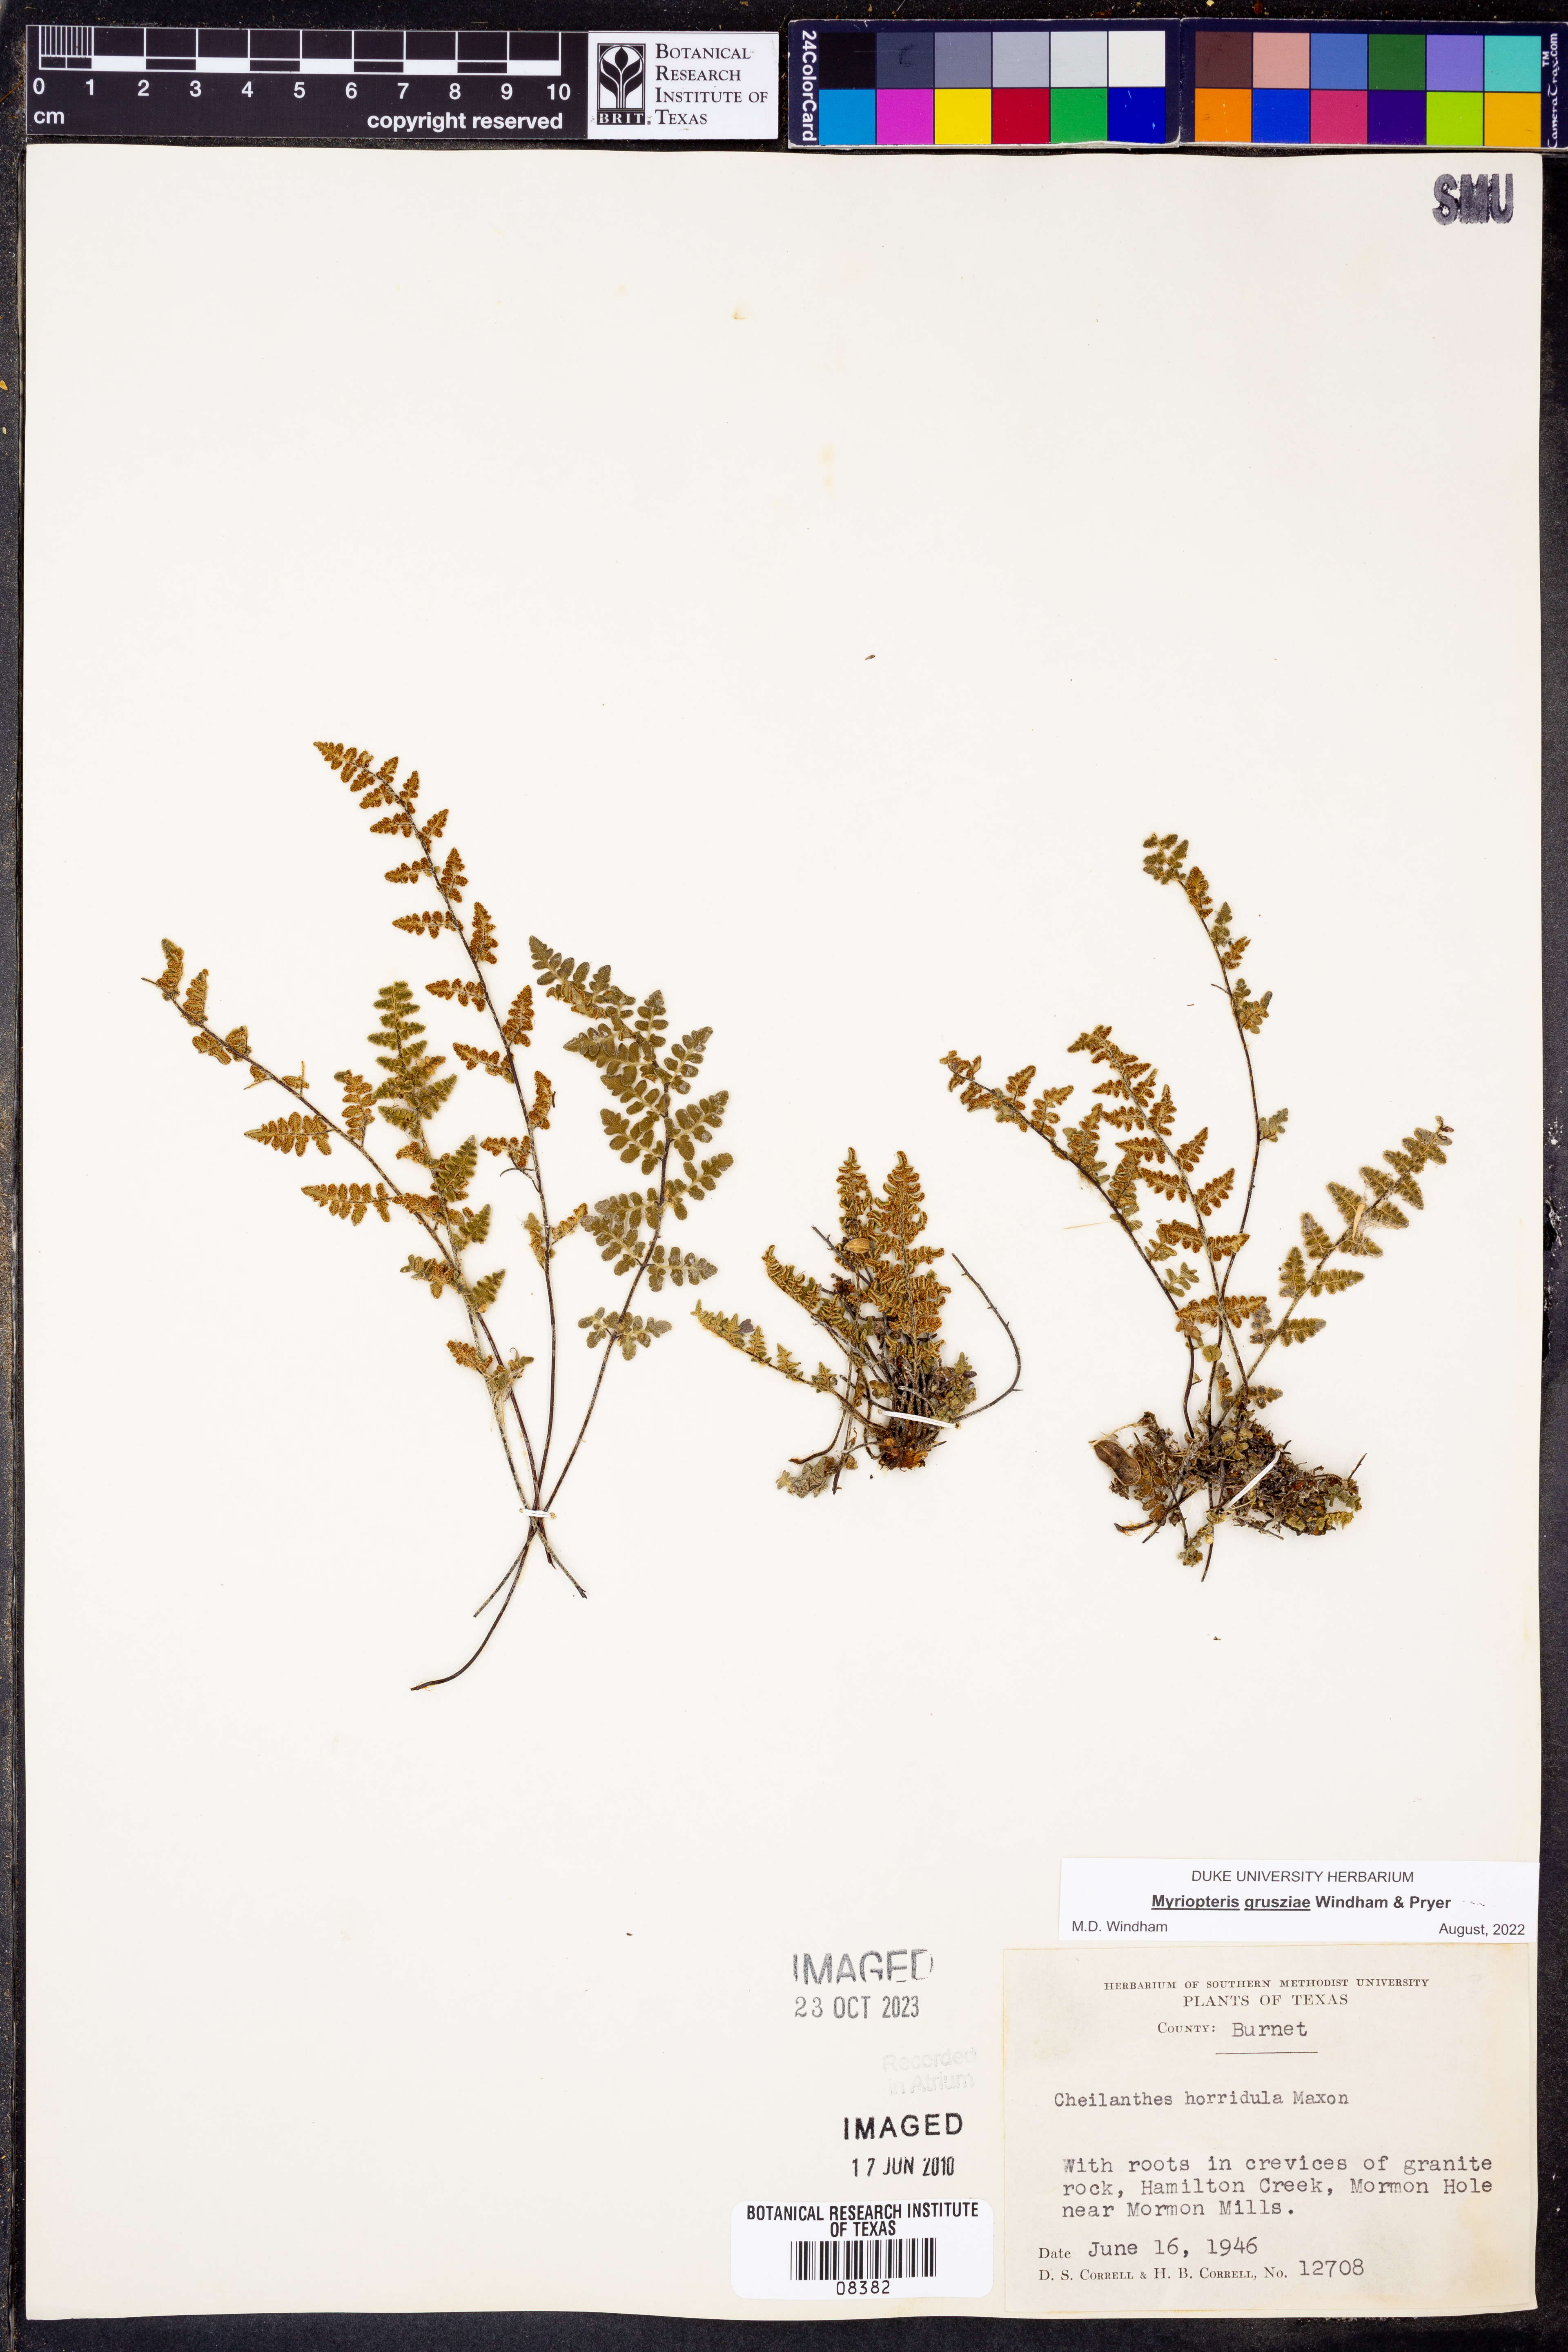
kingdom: Plantae
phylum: Tracheophyta
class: Polypodiopsida
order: Polypodiales
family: Pteridaceae
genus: Myriopteris
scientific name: Myriopteris grusziae
